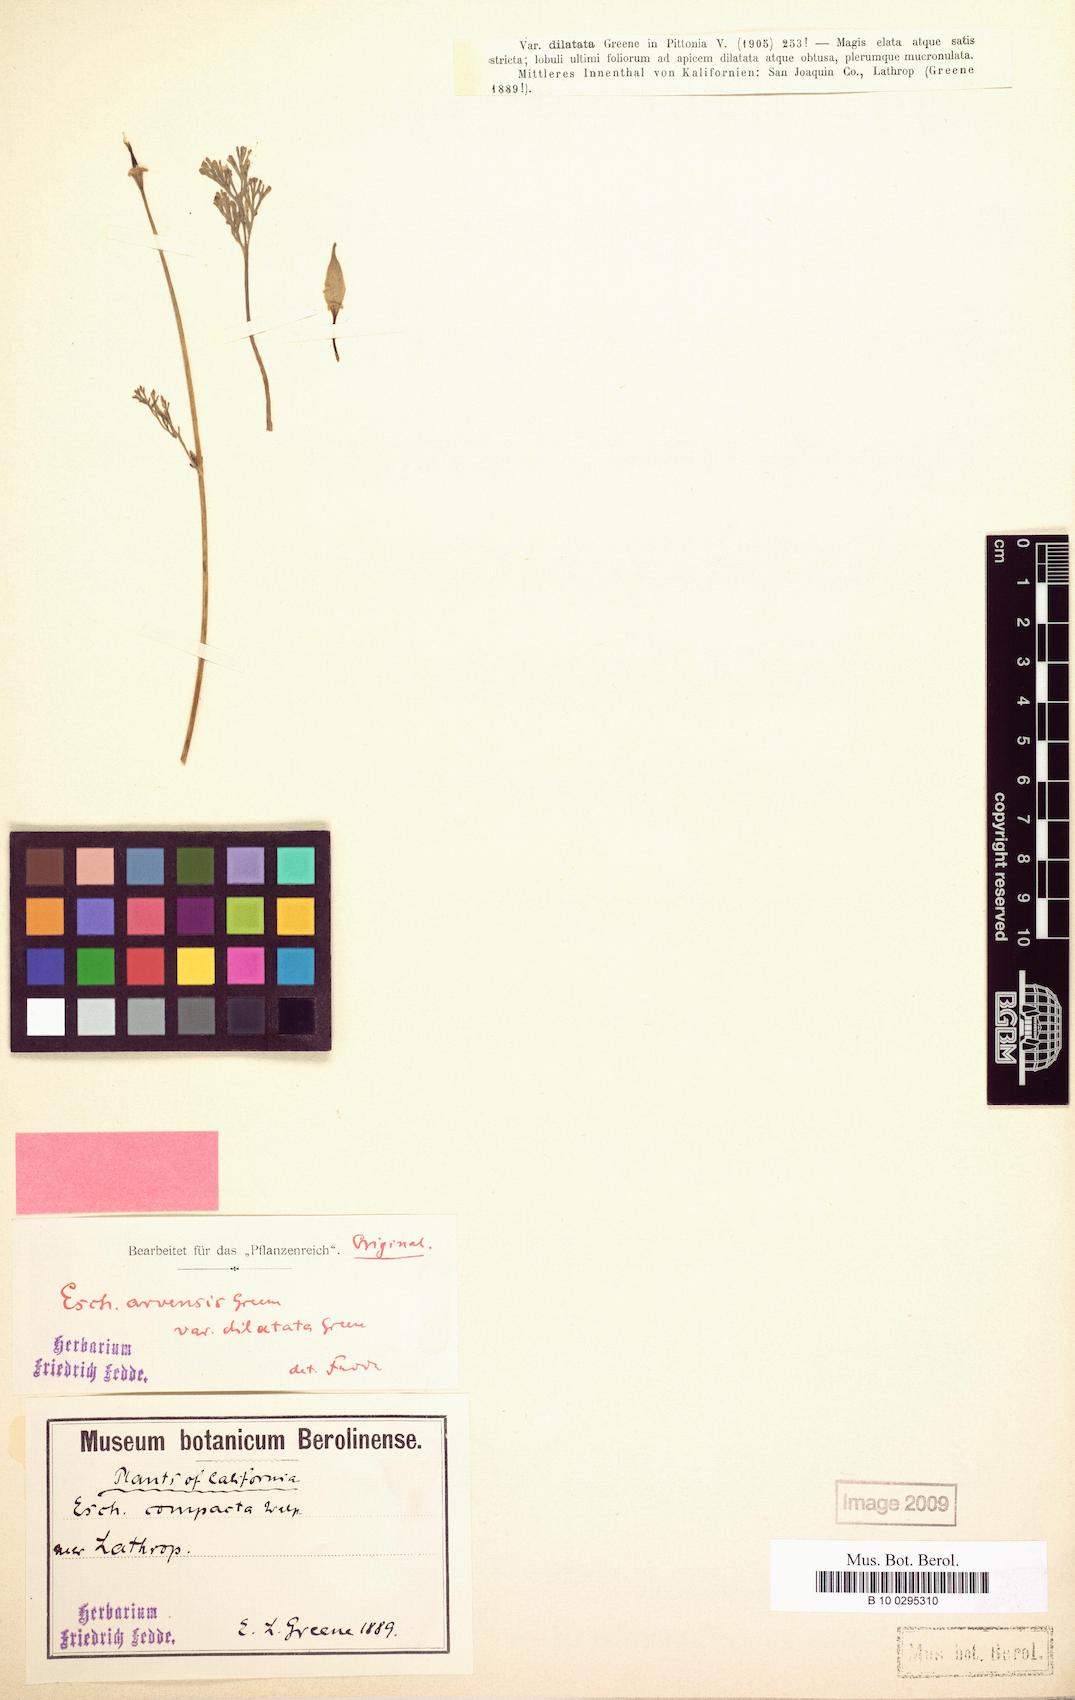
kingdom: Plantae
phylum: Tracheophyta
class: Magnoliopsida
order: Ranunculales
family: Papaveraceae
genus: Eschscholzia
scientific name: Eschscholzia californica
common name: California poppy
